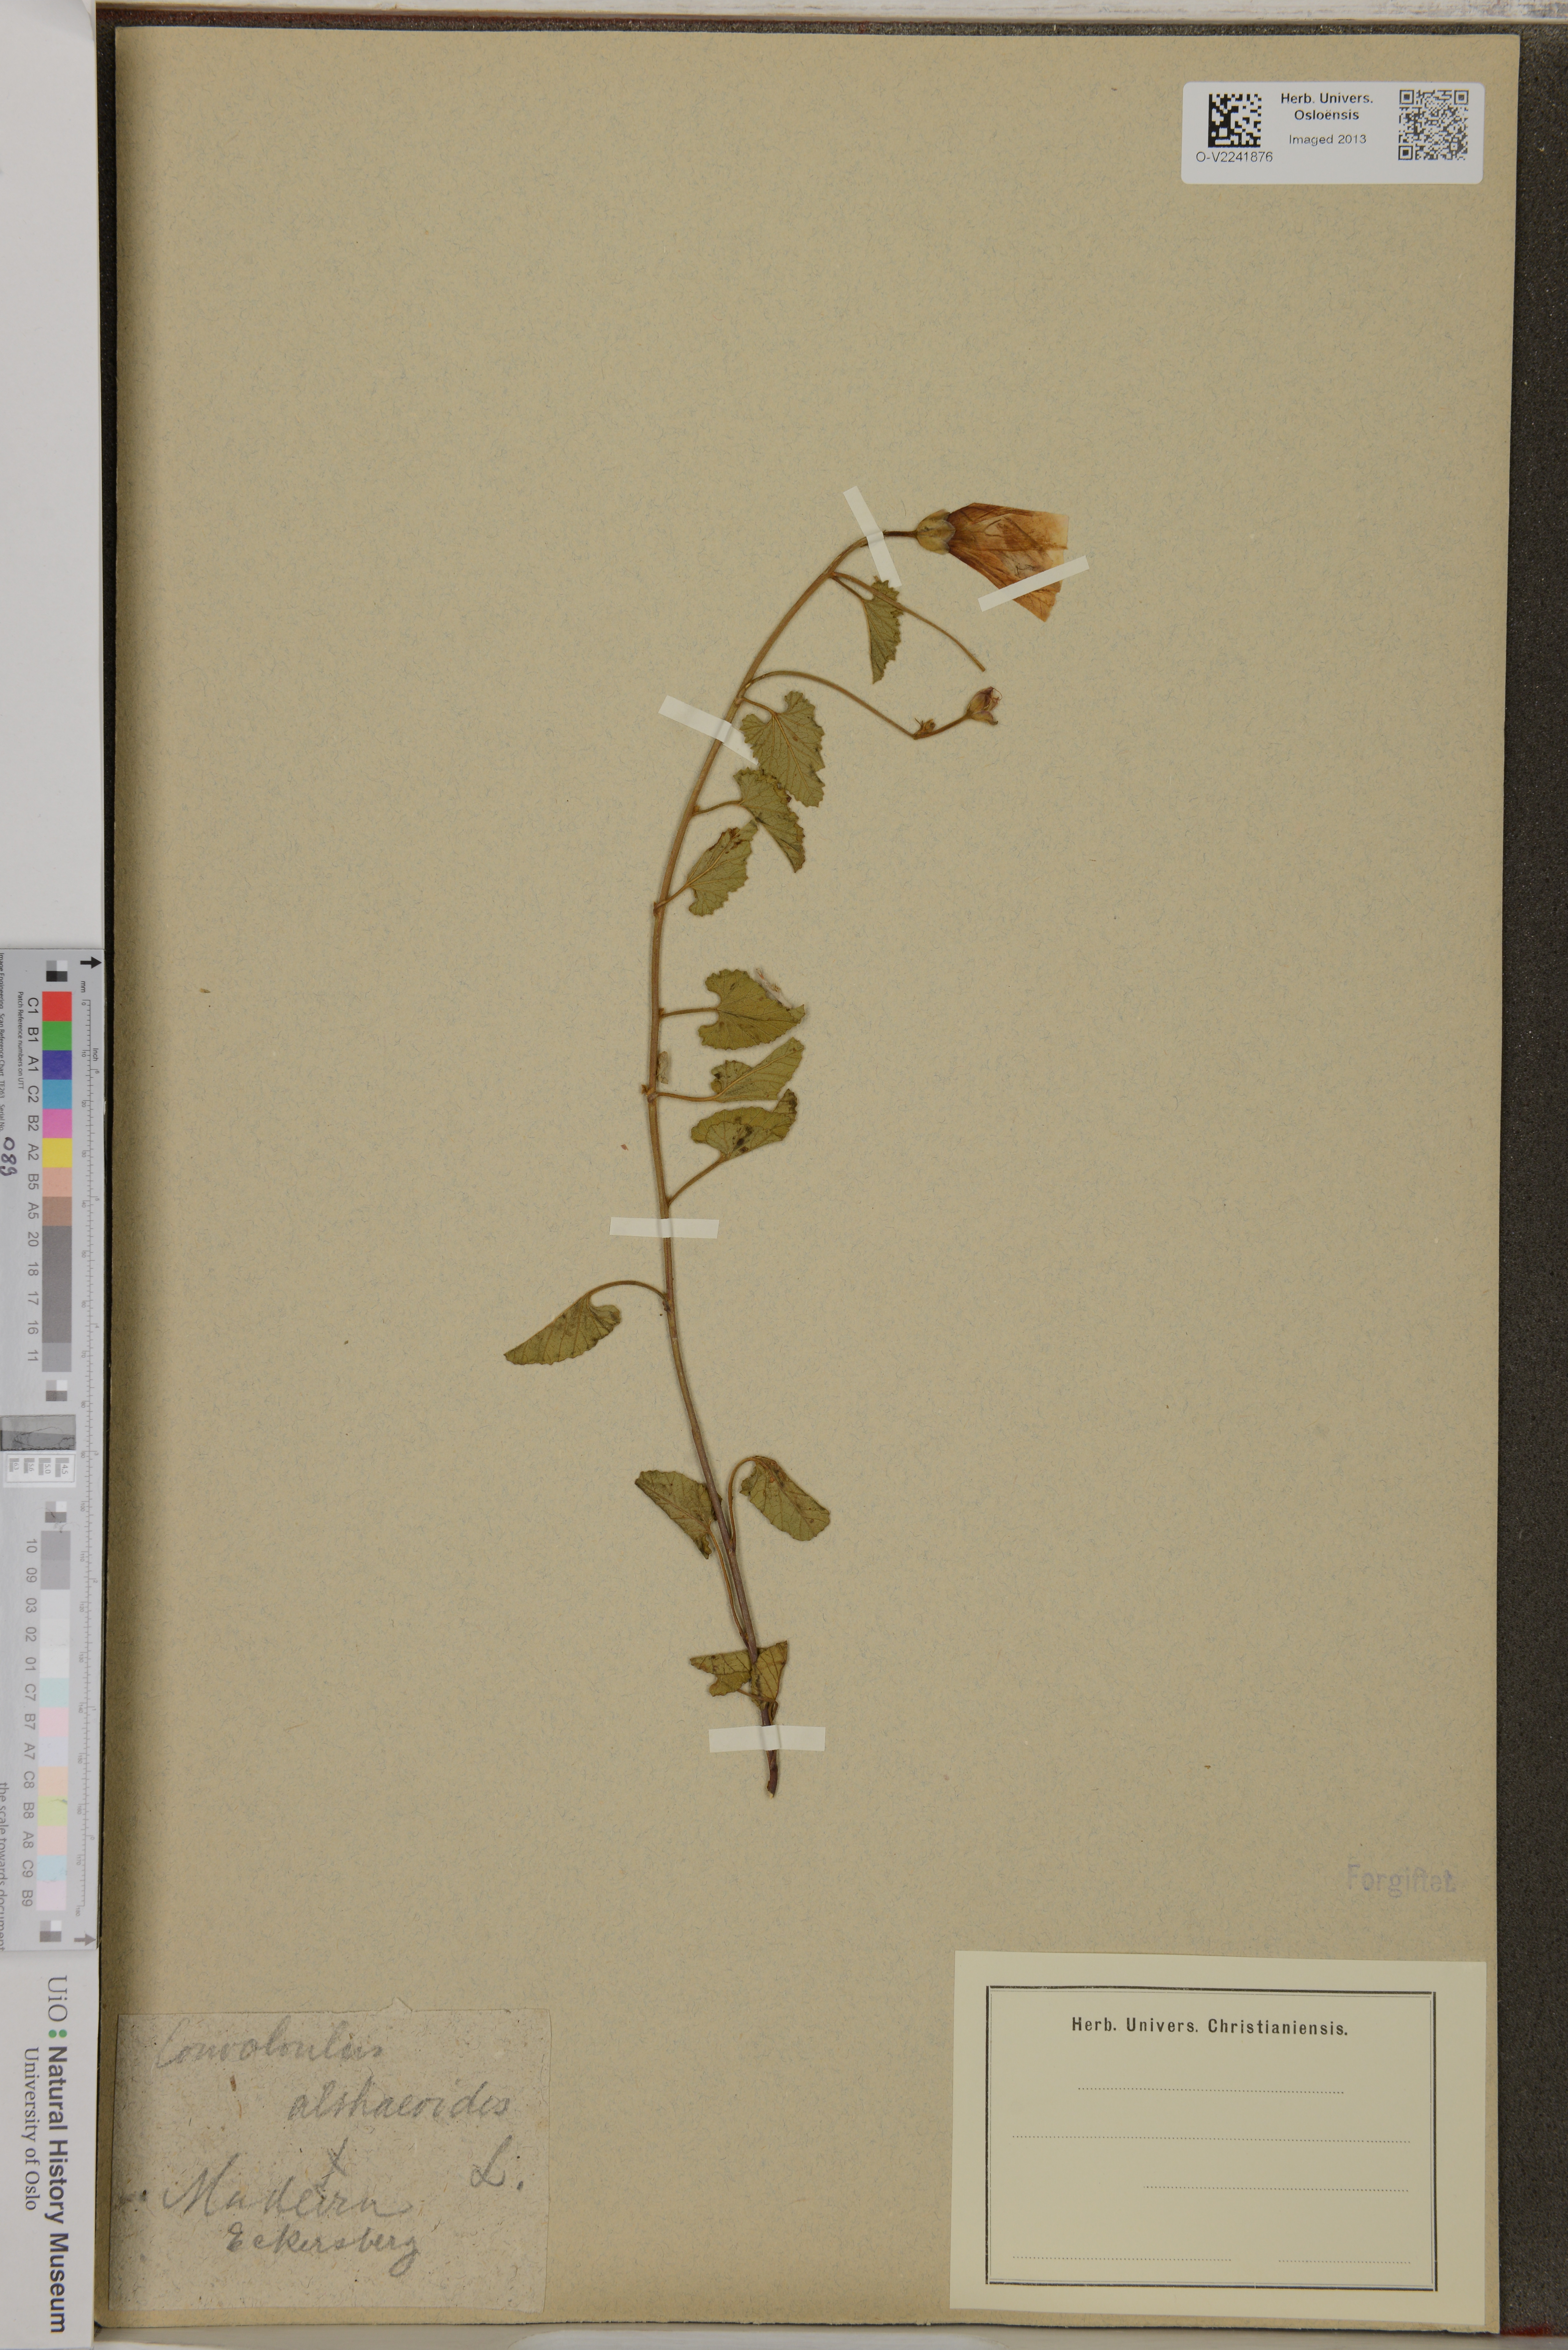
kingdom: Plantae
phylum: Tracheophyta
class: Magnoliopsida
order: Solanales
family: Convolvulaceae
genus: Convolvulus
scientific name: Convolvulus althaeoides
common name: Mallow bindweed
